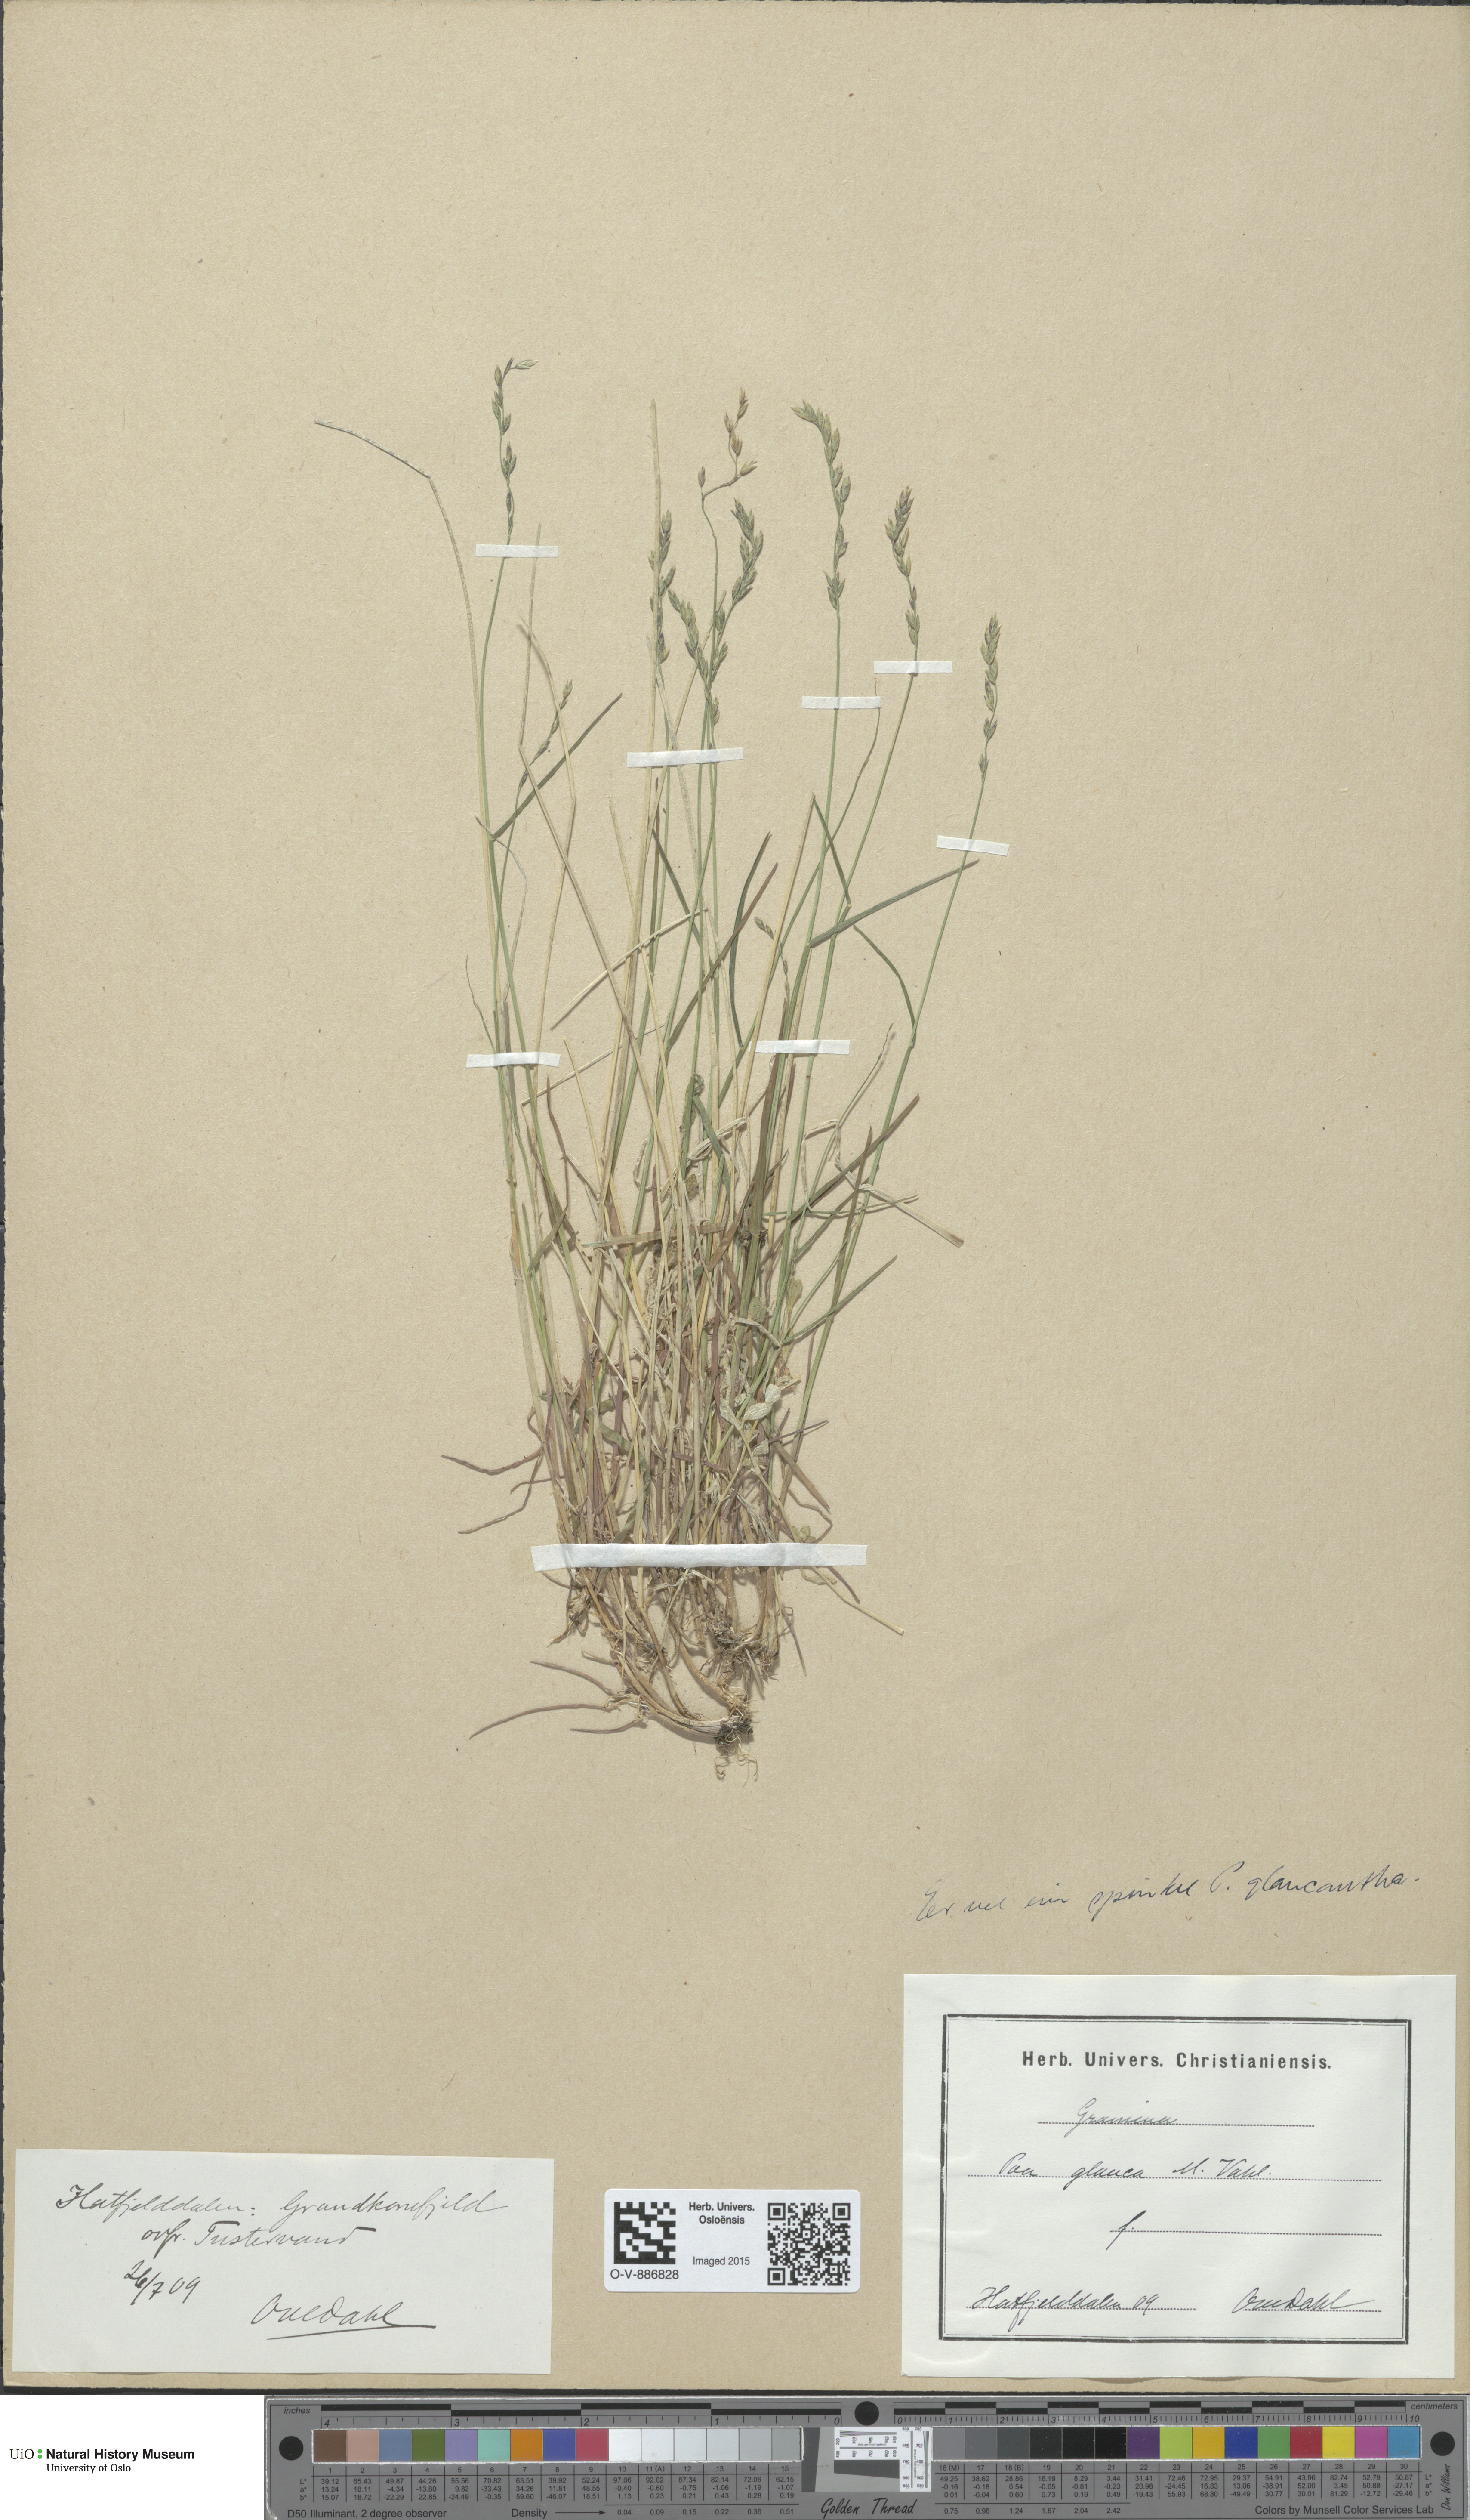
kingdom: Plantae
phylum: Tracheophyta
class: Liliopsida
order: Poales
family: Poaceae
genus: Poa
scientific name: Poa nemoralis
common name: Wood bluegrass
